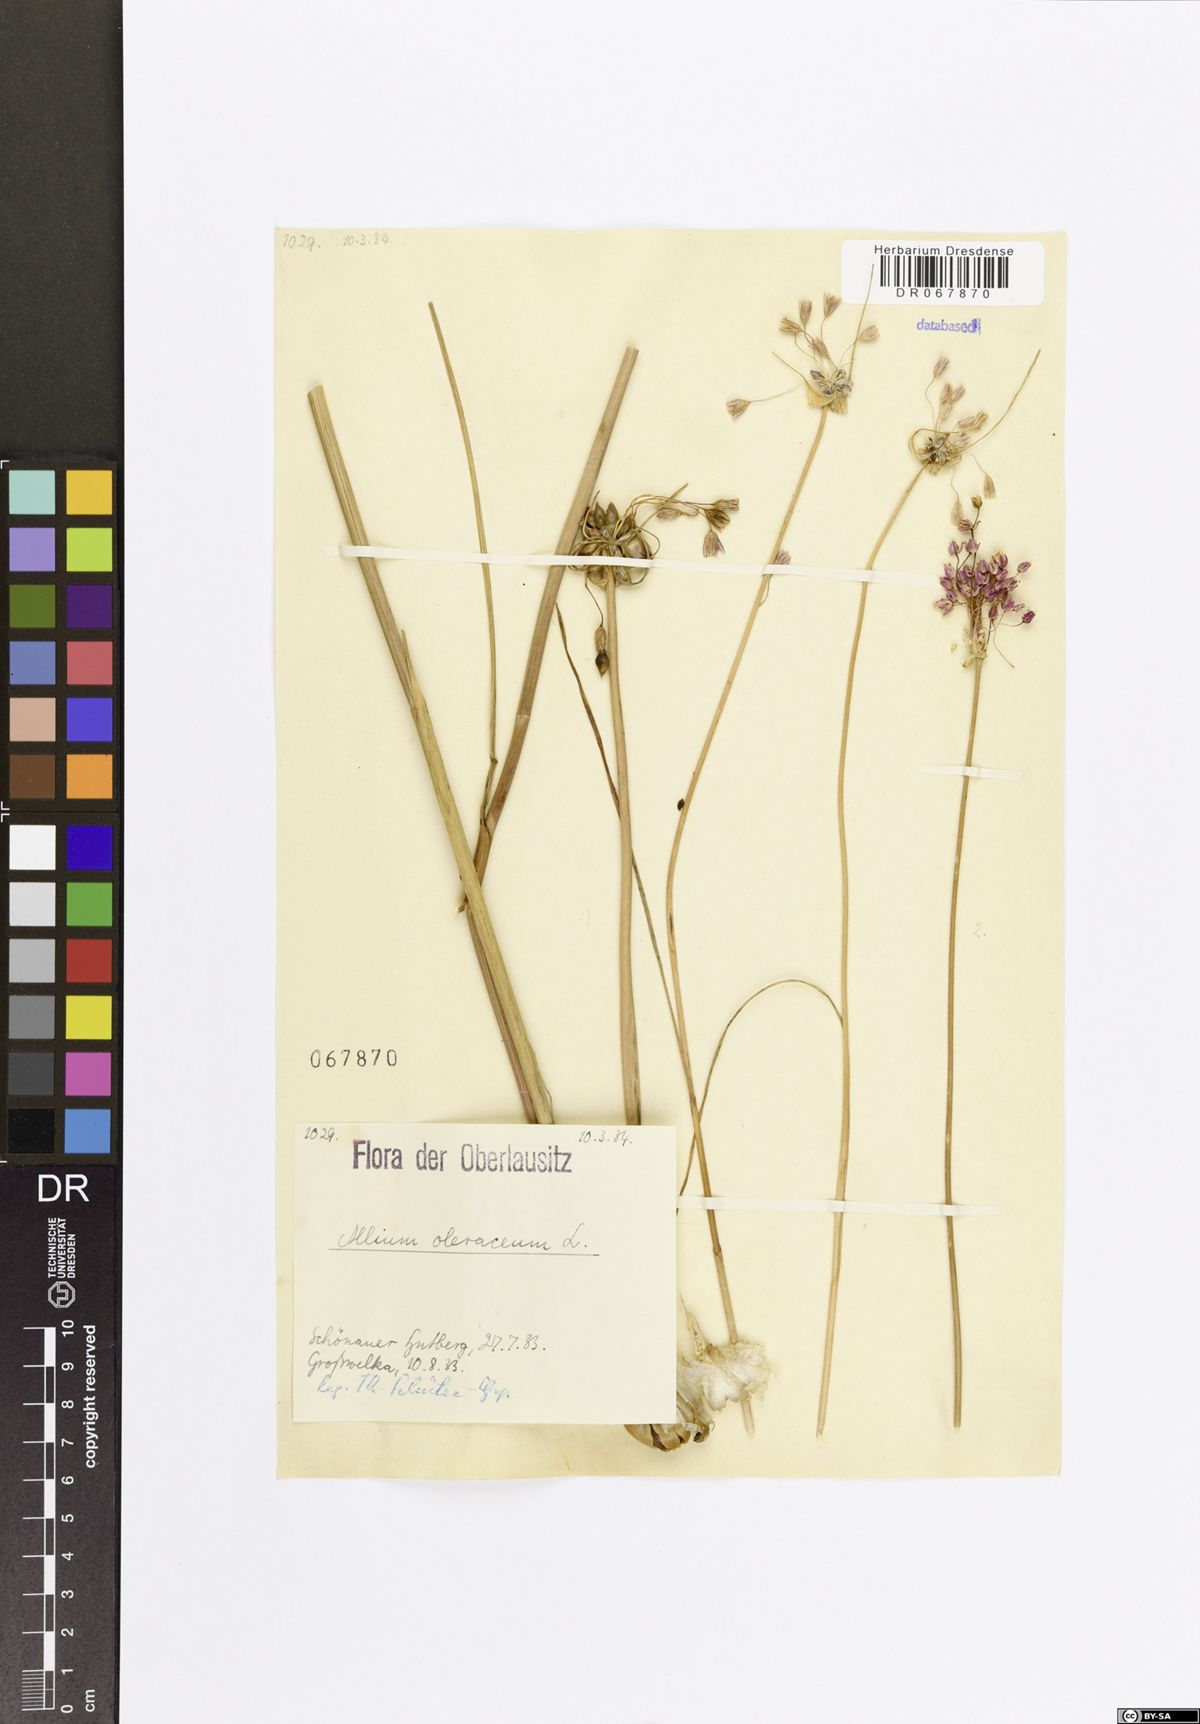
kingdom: Plantae
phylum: Tracheophyta
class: Liliopsida
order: Asparagales
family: Amaryllidaceae
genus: Allium
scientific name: Allium oleraceum
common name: Field garlic
